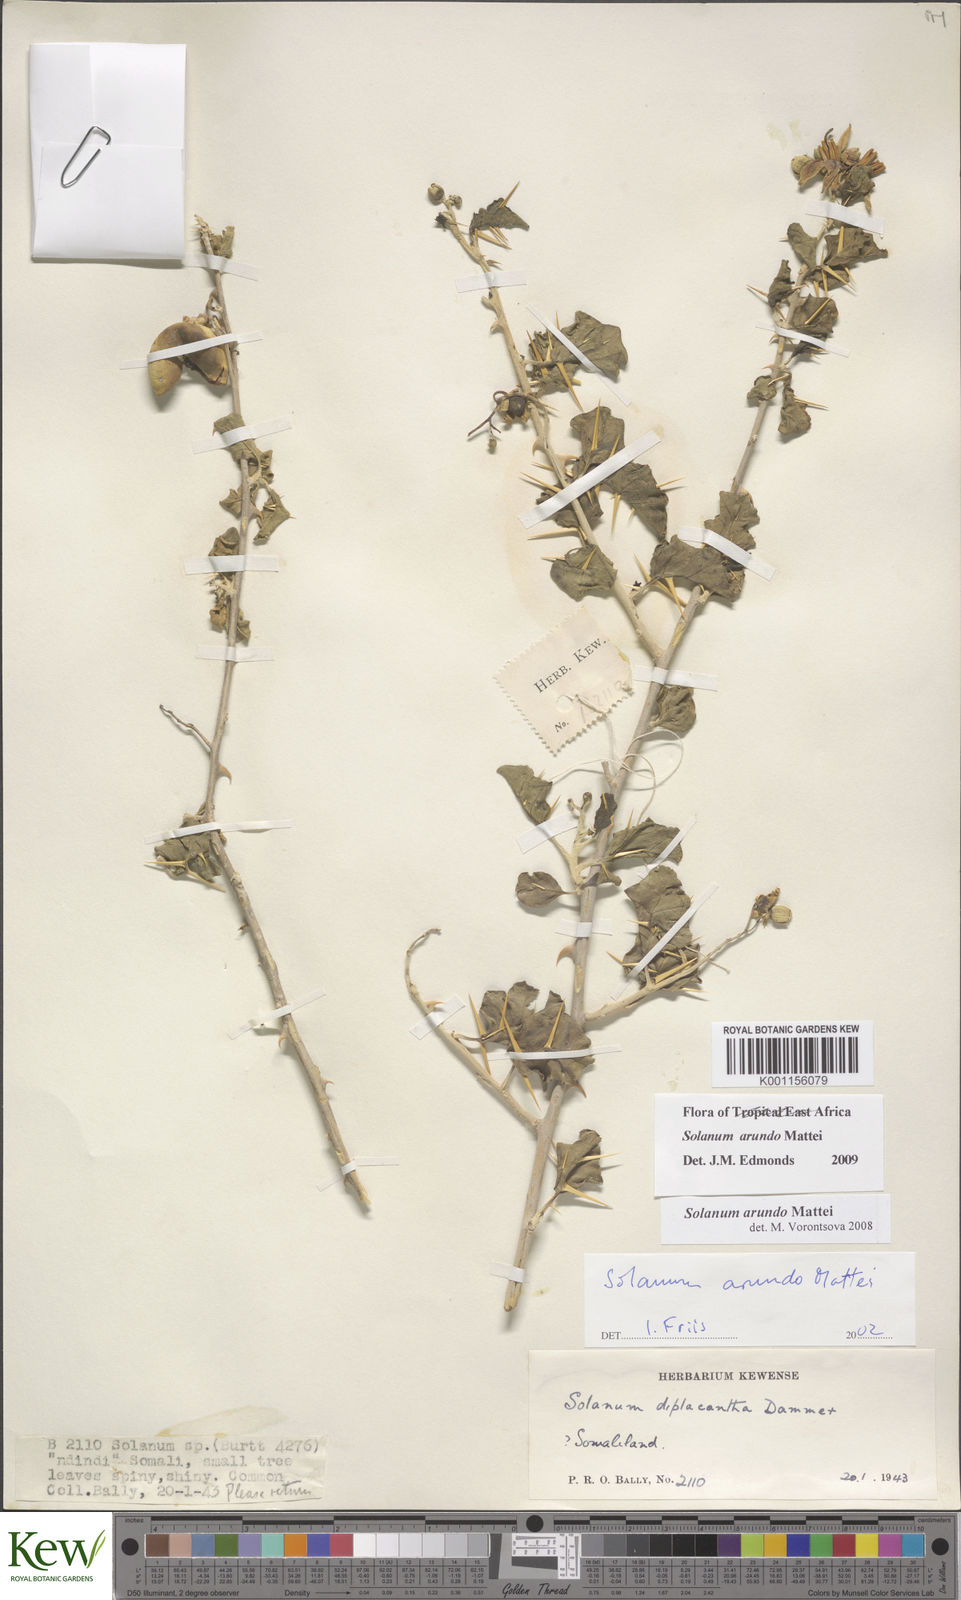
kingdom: Plantae
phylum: Tracheophyta
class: Magnoliopsida
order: Solanales
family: Solanaceae
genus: Solanum
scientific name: Solanum arundo
